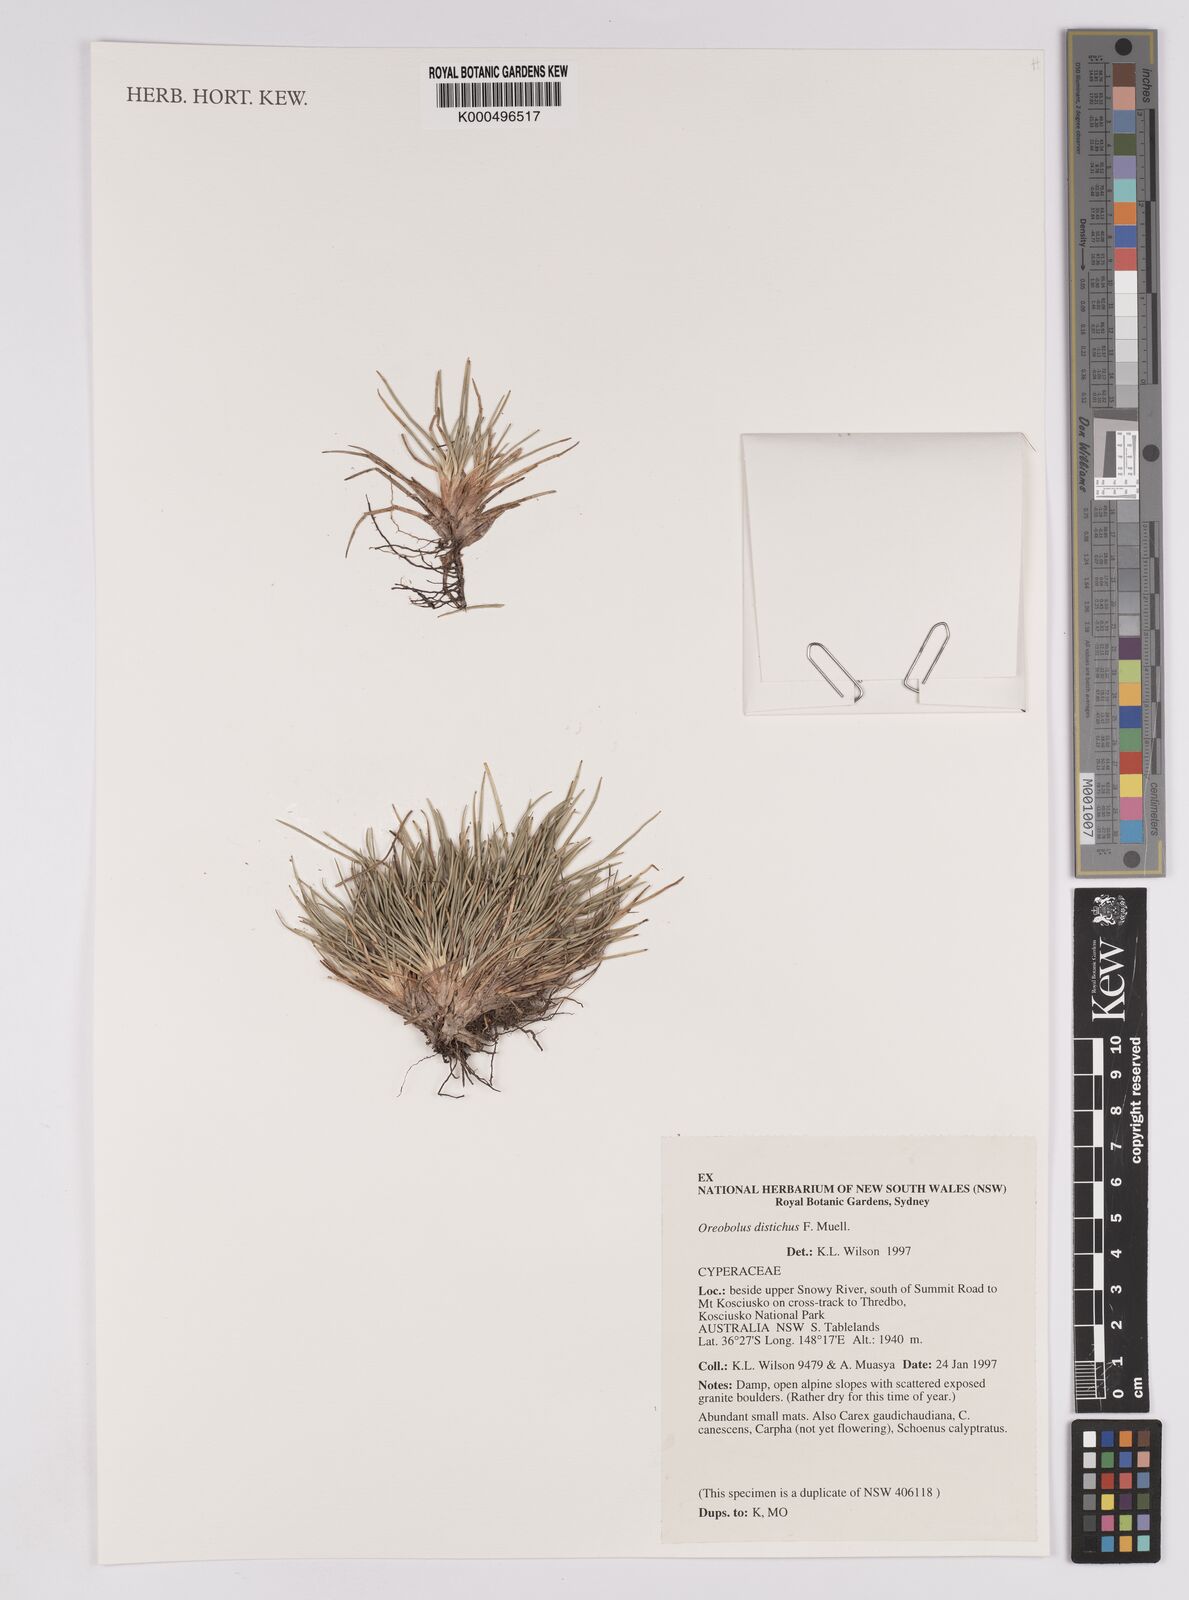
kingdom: Plantae
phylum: Tracheophyta
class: Liliopsida
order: Poales
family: Cyperaceae
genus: Oreobolus
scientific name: Oreobolus
